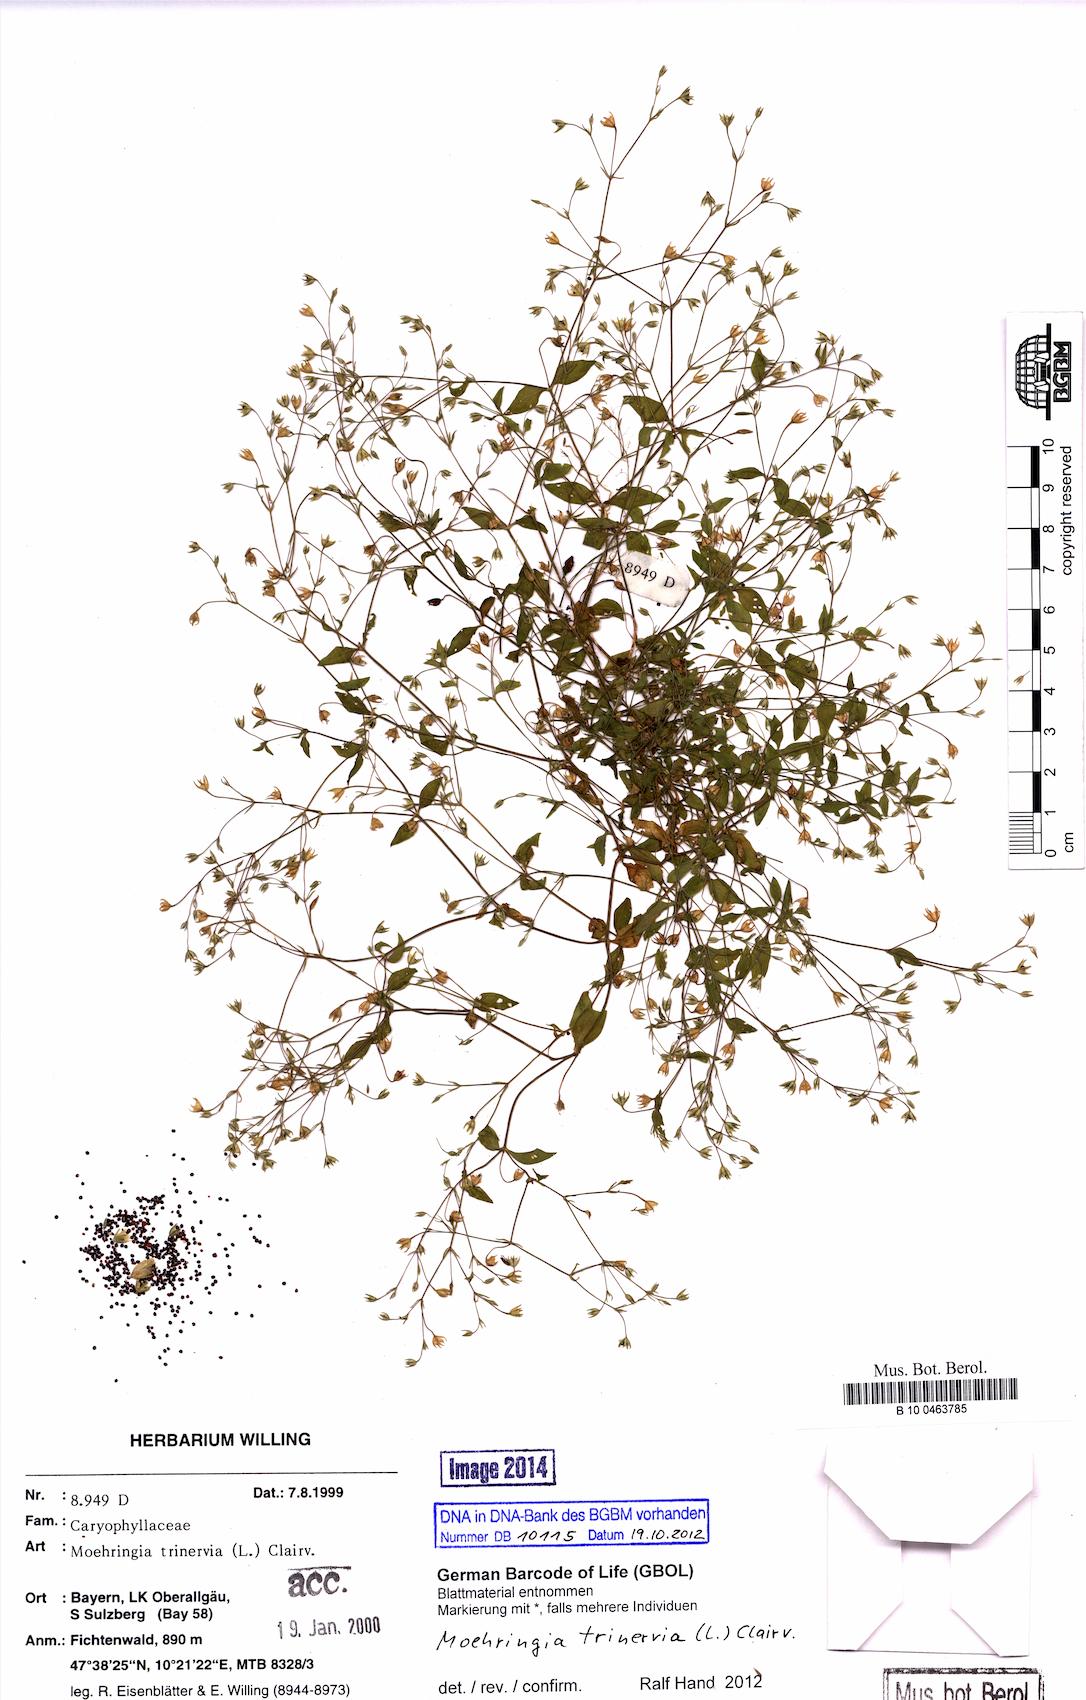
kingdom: Plantae
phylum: Tracheophyta
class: Magnoliopsida
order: Caryophyllales
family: Caryophyllaceae
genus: Moehringia
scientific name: Moehringia trinervia
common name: Three-nerved sandwort
